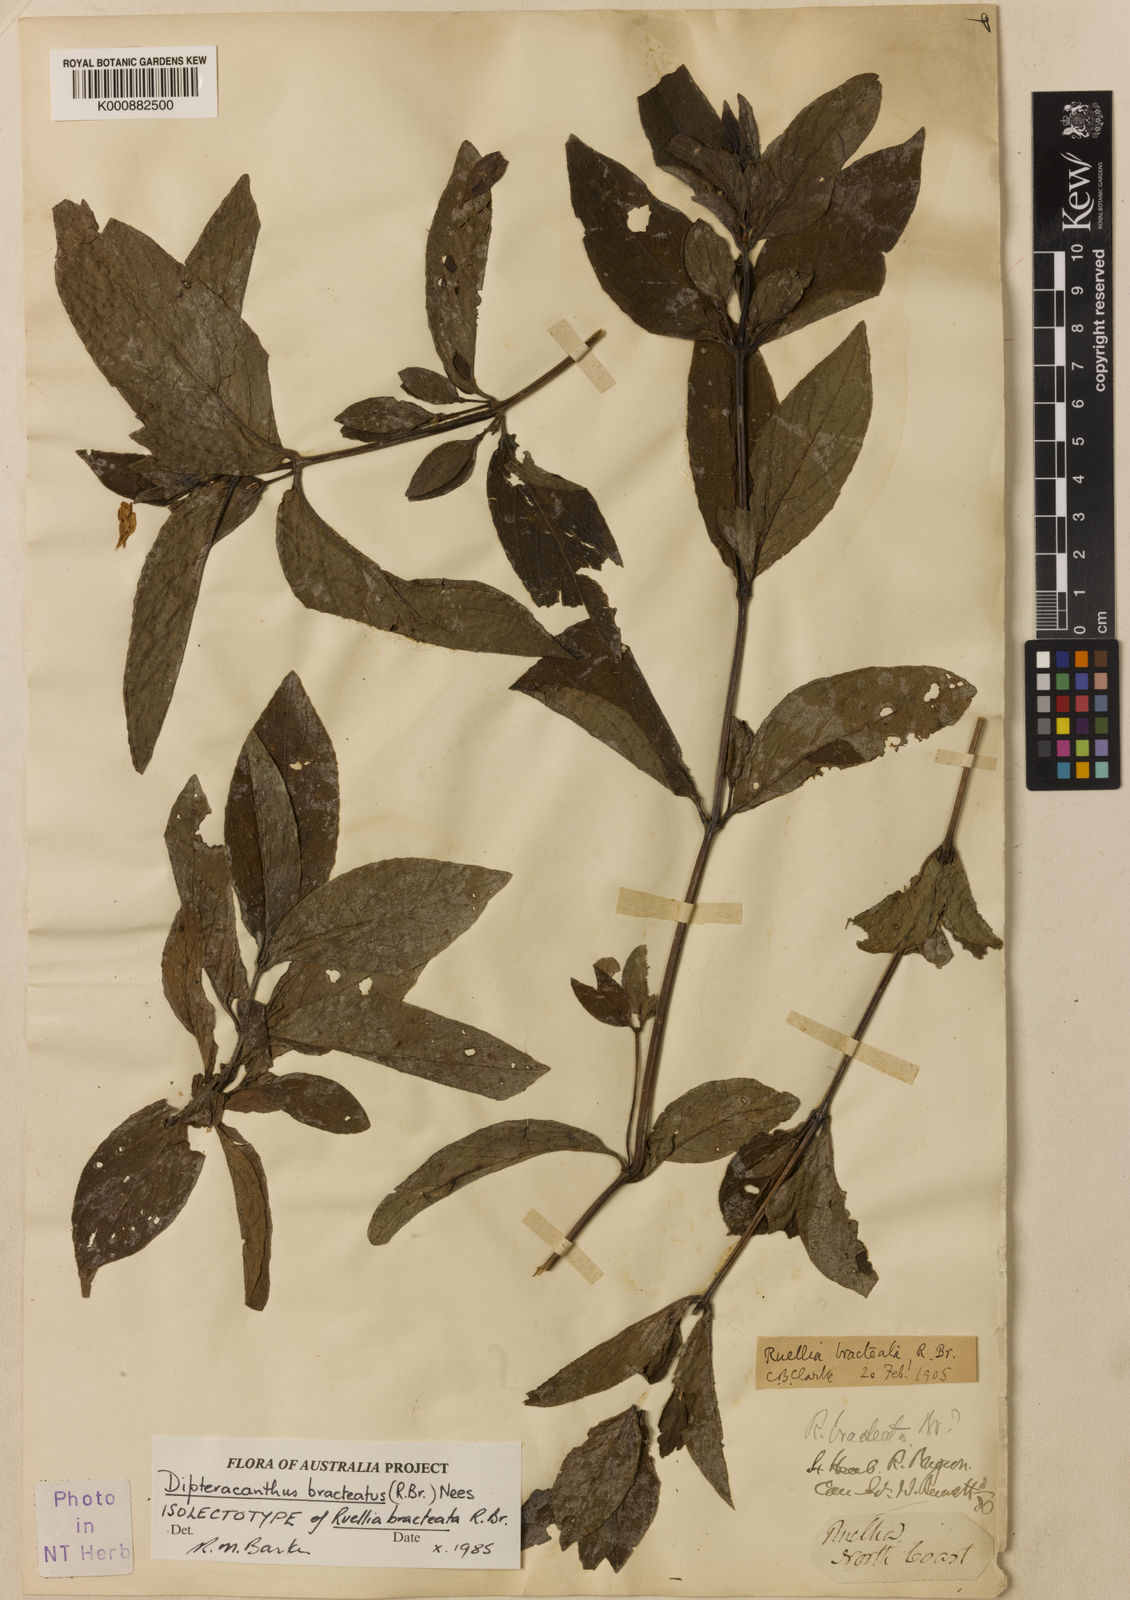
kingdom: Plantae
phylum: Tracheophyta
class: Magnoliopsida
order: Lamiales
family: Acanthaceae
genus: Ruellia
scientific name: Ruellia bracteata
